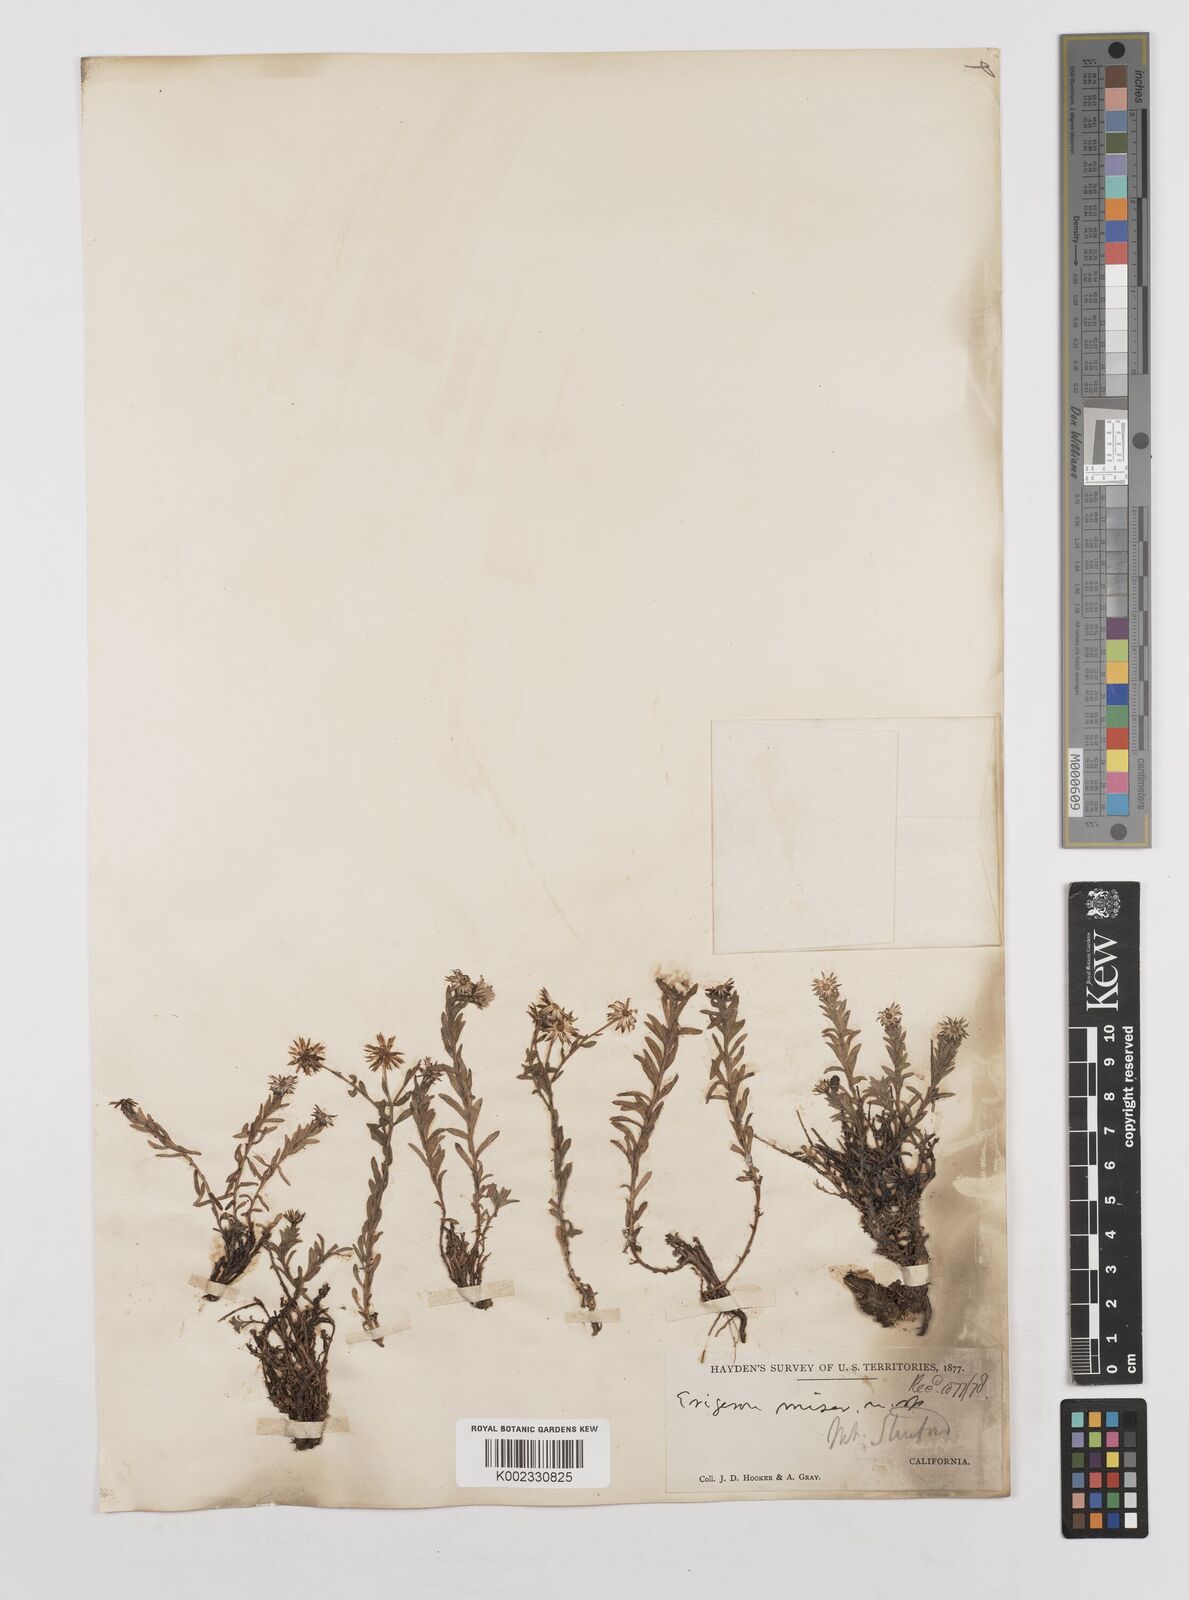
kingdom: Plantae
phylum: Tracheophyta
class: Magnoliopsida
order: Asterales
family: Asteraceae
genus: Erigeron
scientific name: Erigeron supplex
